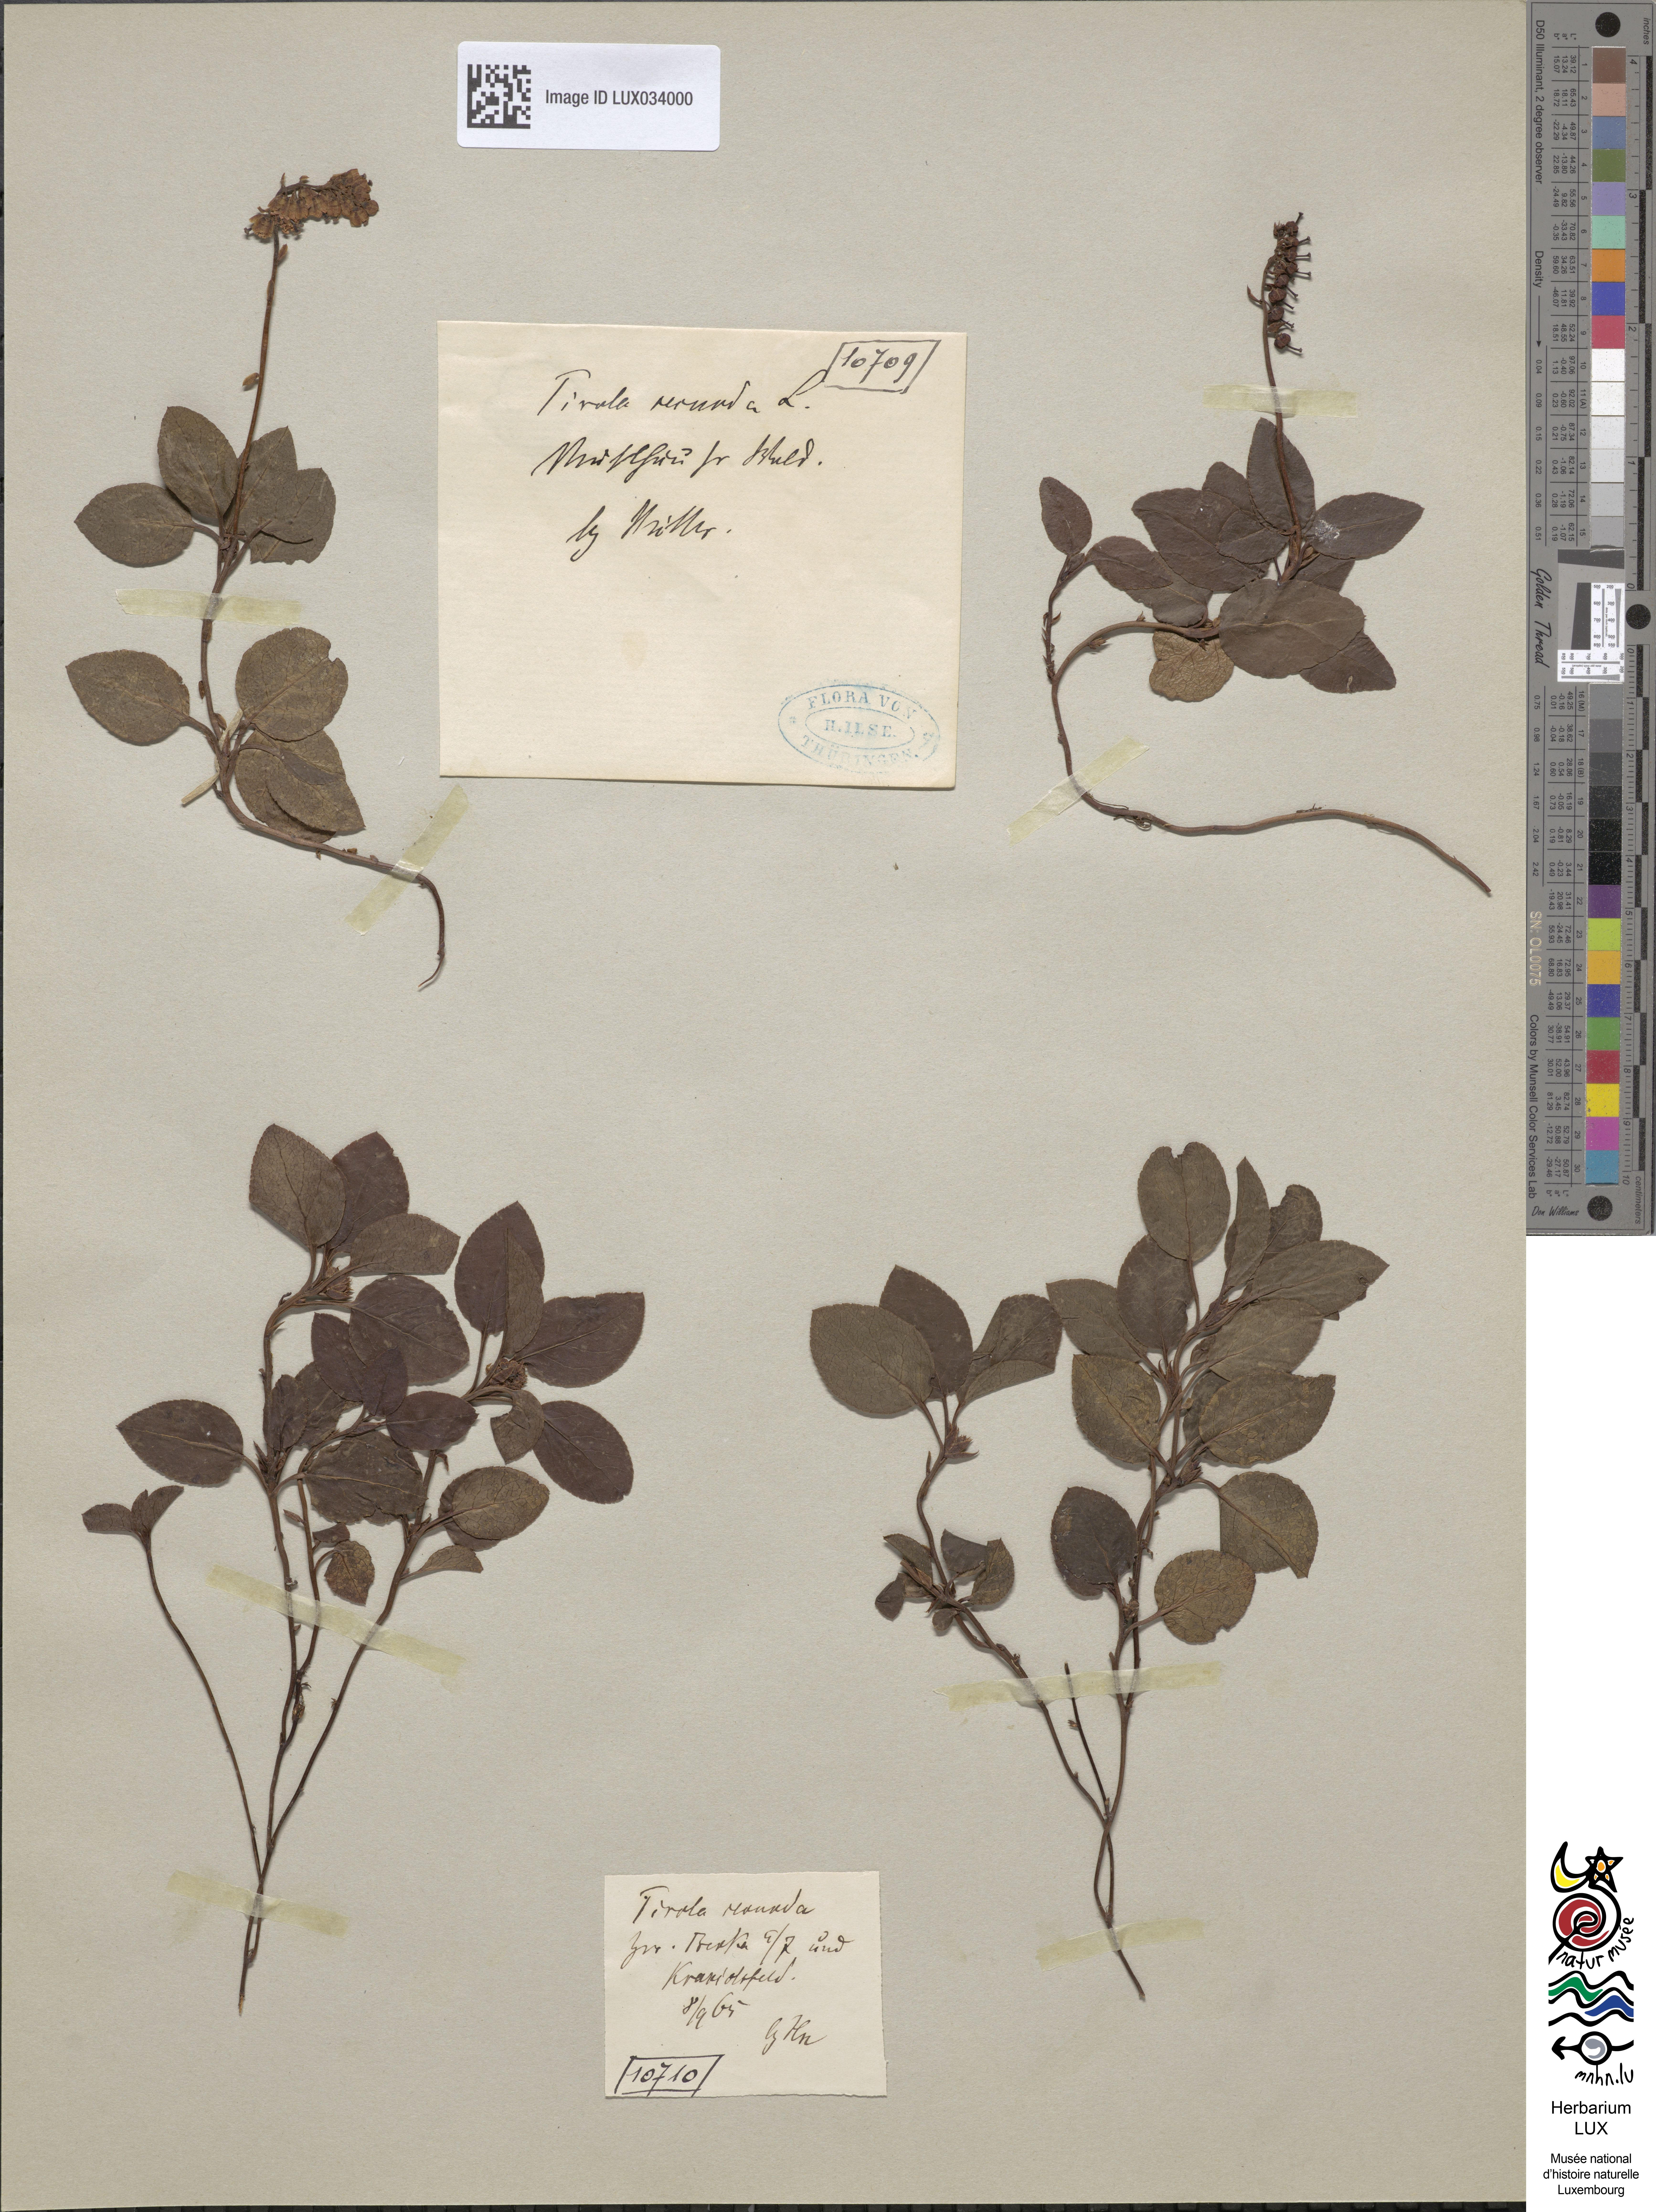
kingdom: Plantae
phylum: Tracheophyta
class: Magnoliopsida
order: Ericales
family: Ericaceae
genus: Orthilia
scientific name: Orthilia secunda
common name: One-sided orthilia
